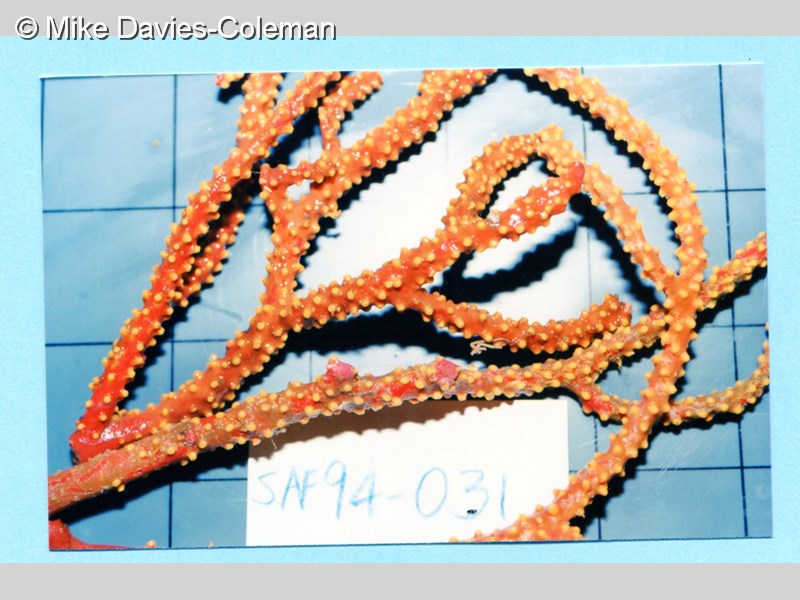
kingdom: Animalia
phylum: Cnidaria
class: Anthozoa
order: Scleralcyonacea
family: Spongiodermidae
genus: Homophyton
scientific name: Homophyton verrucosum
